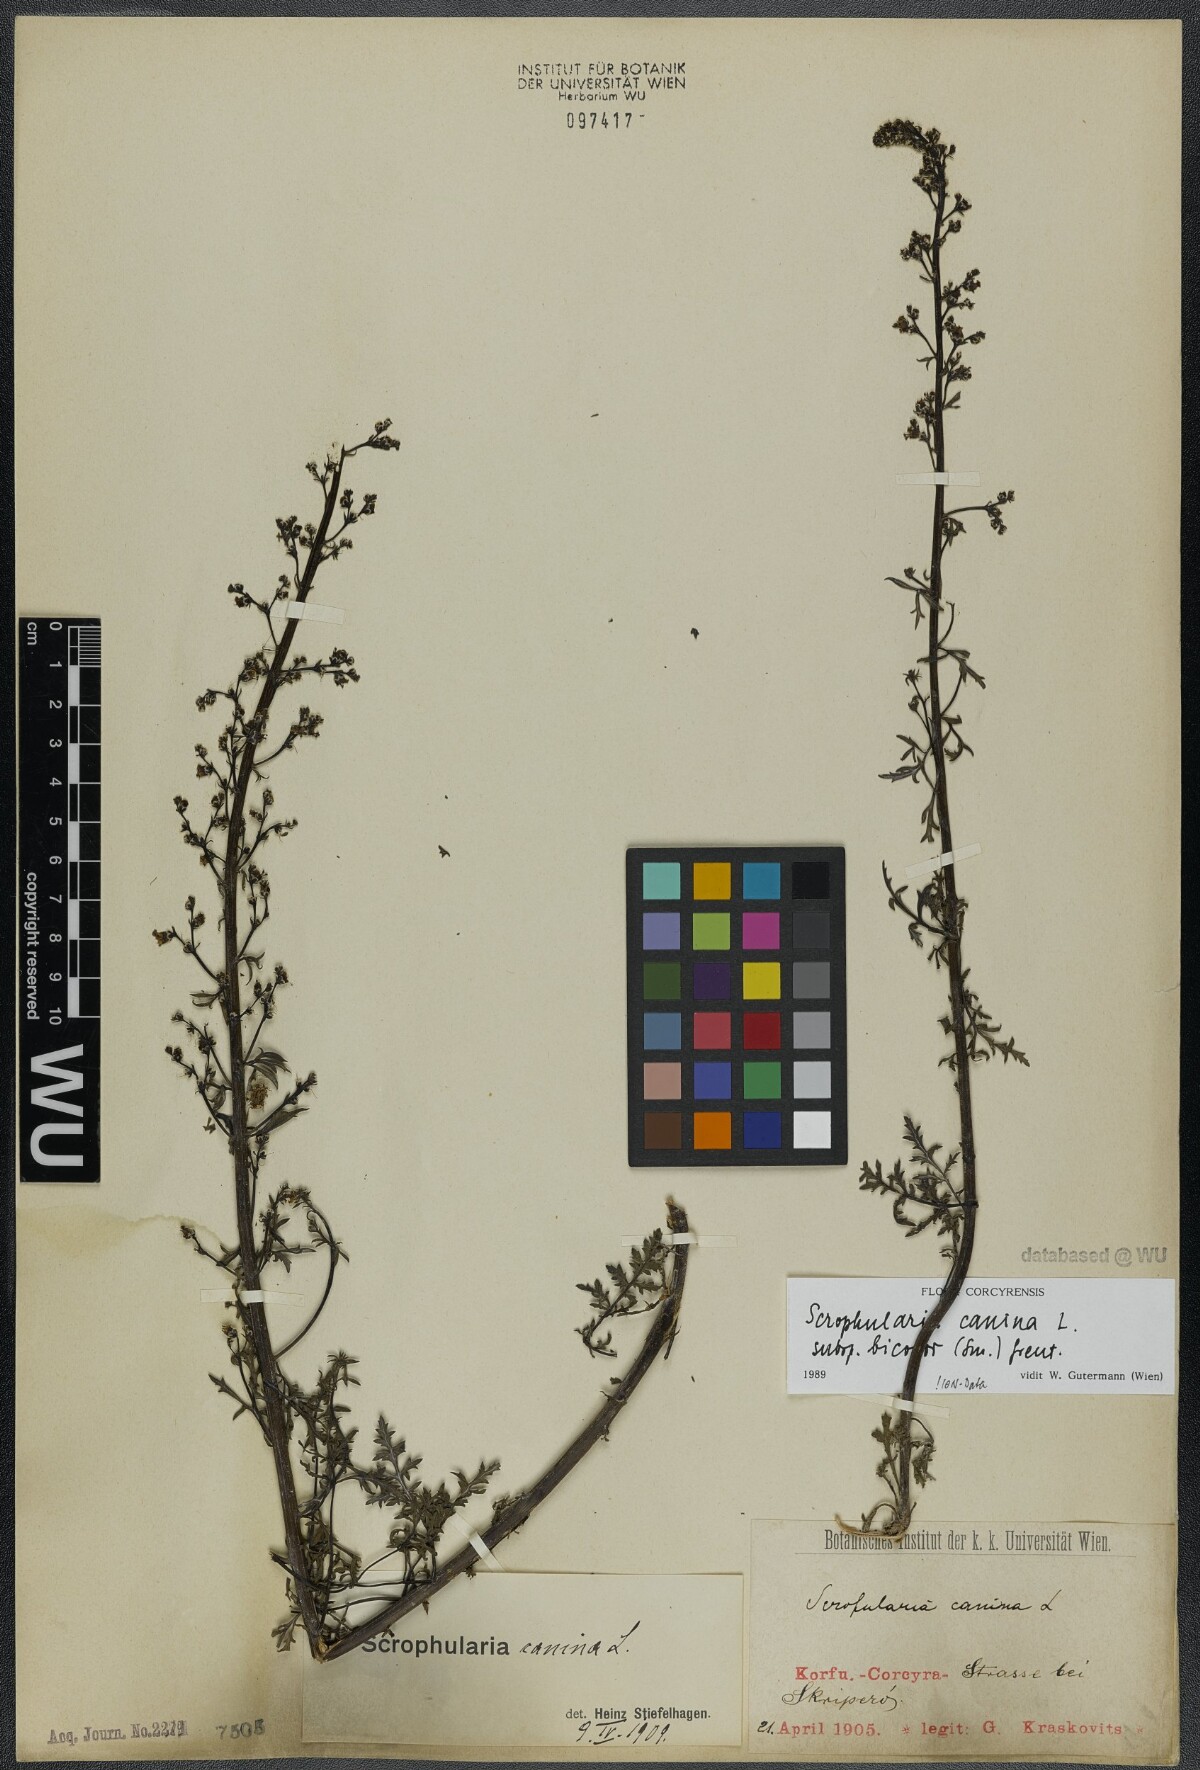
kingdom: Plantae
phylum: Tracheophyta
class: Magnoliopsida
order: Lamiales
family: Scrophulariaceae
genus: Scrophularia
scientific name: Scrophularia canina
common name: French figwort
